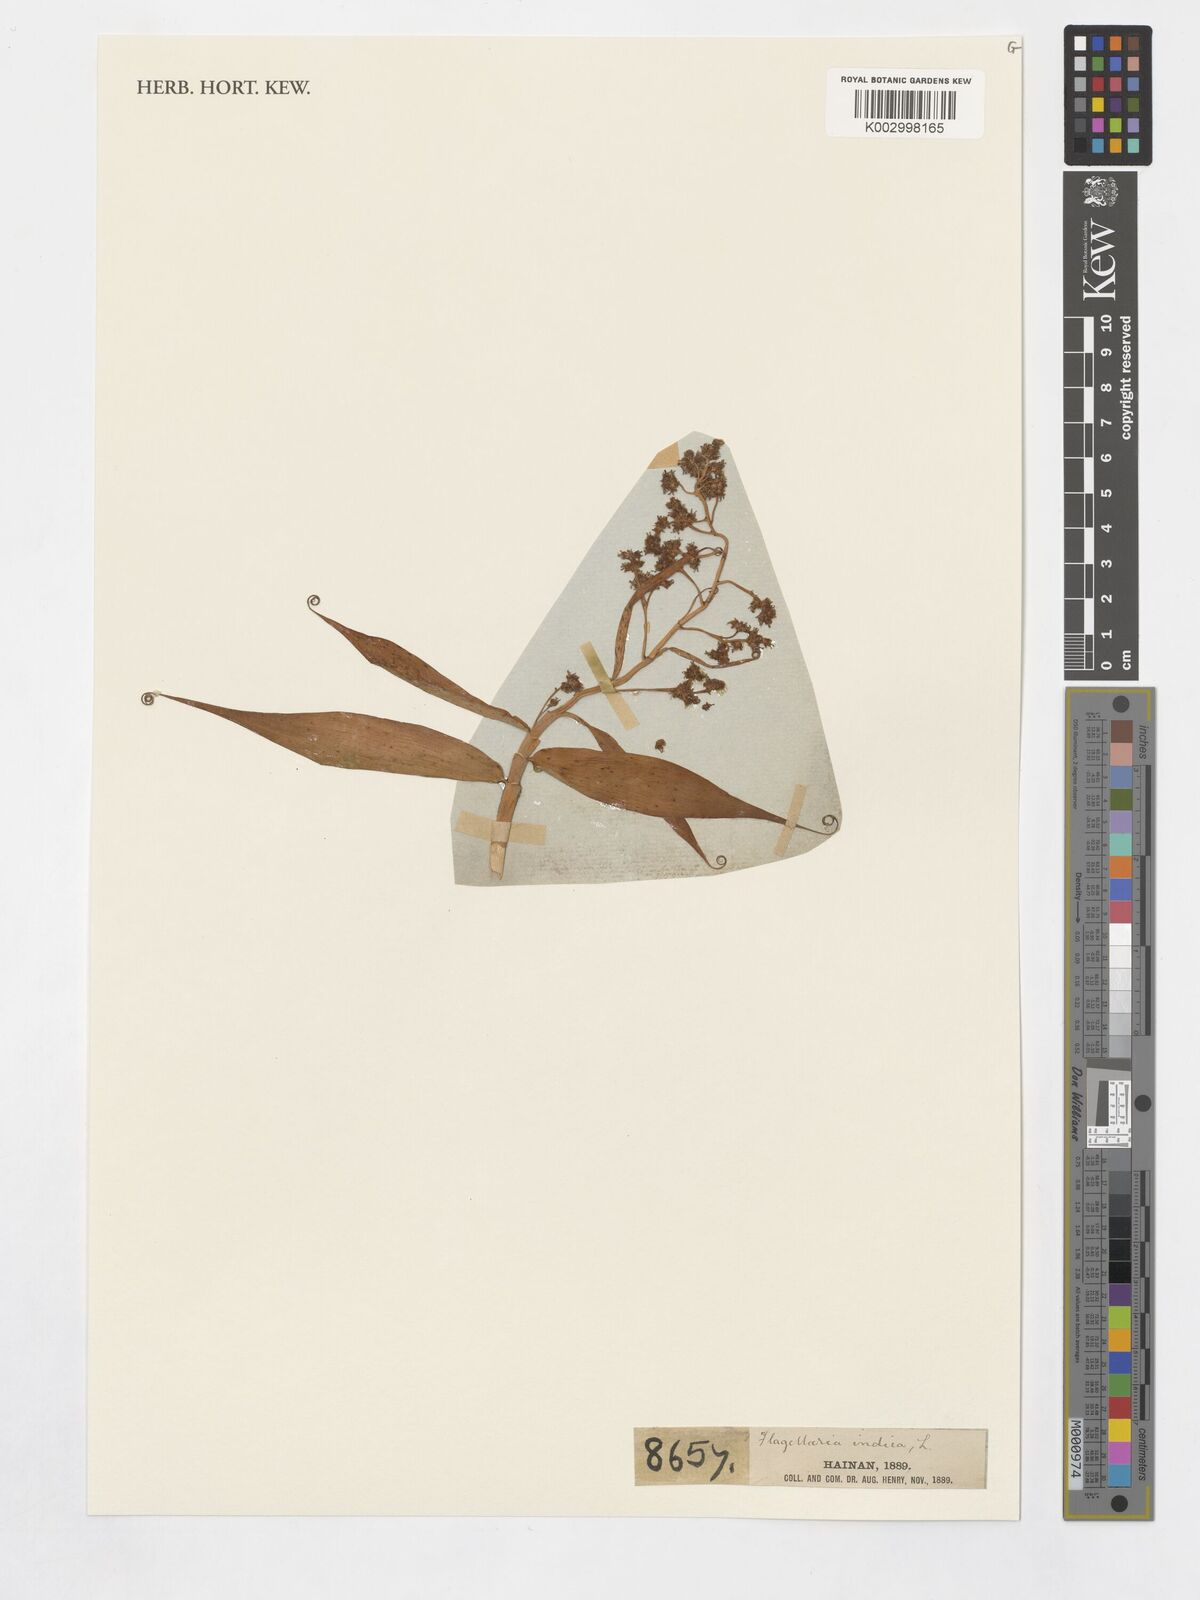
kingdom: Plantae
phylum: Tracheophyta
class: Liliopsida
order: Poales
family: Flagellariaceae
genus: Flagellaria
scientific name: Flagellaria indica
